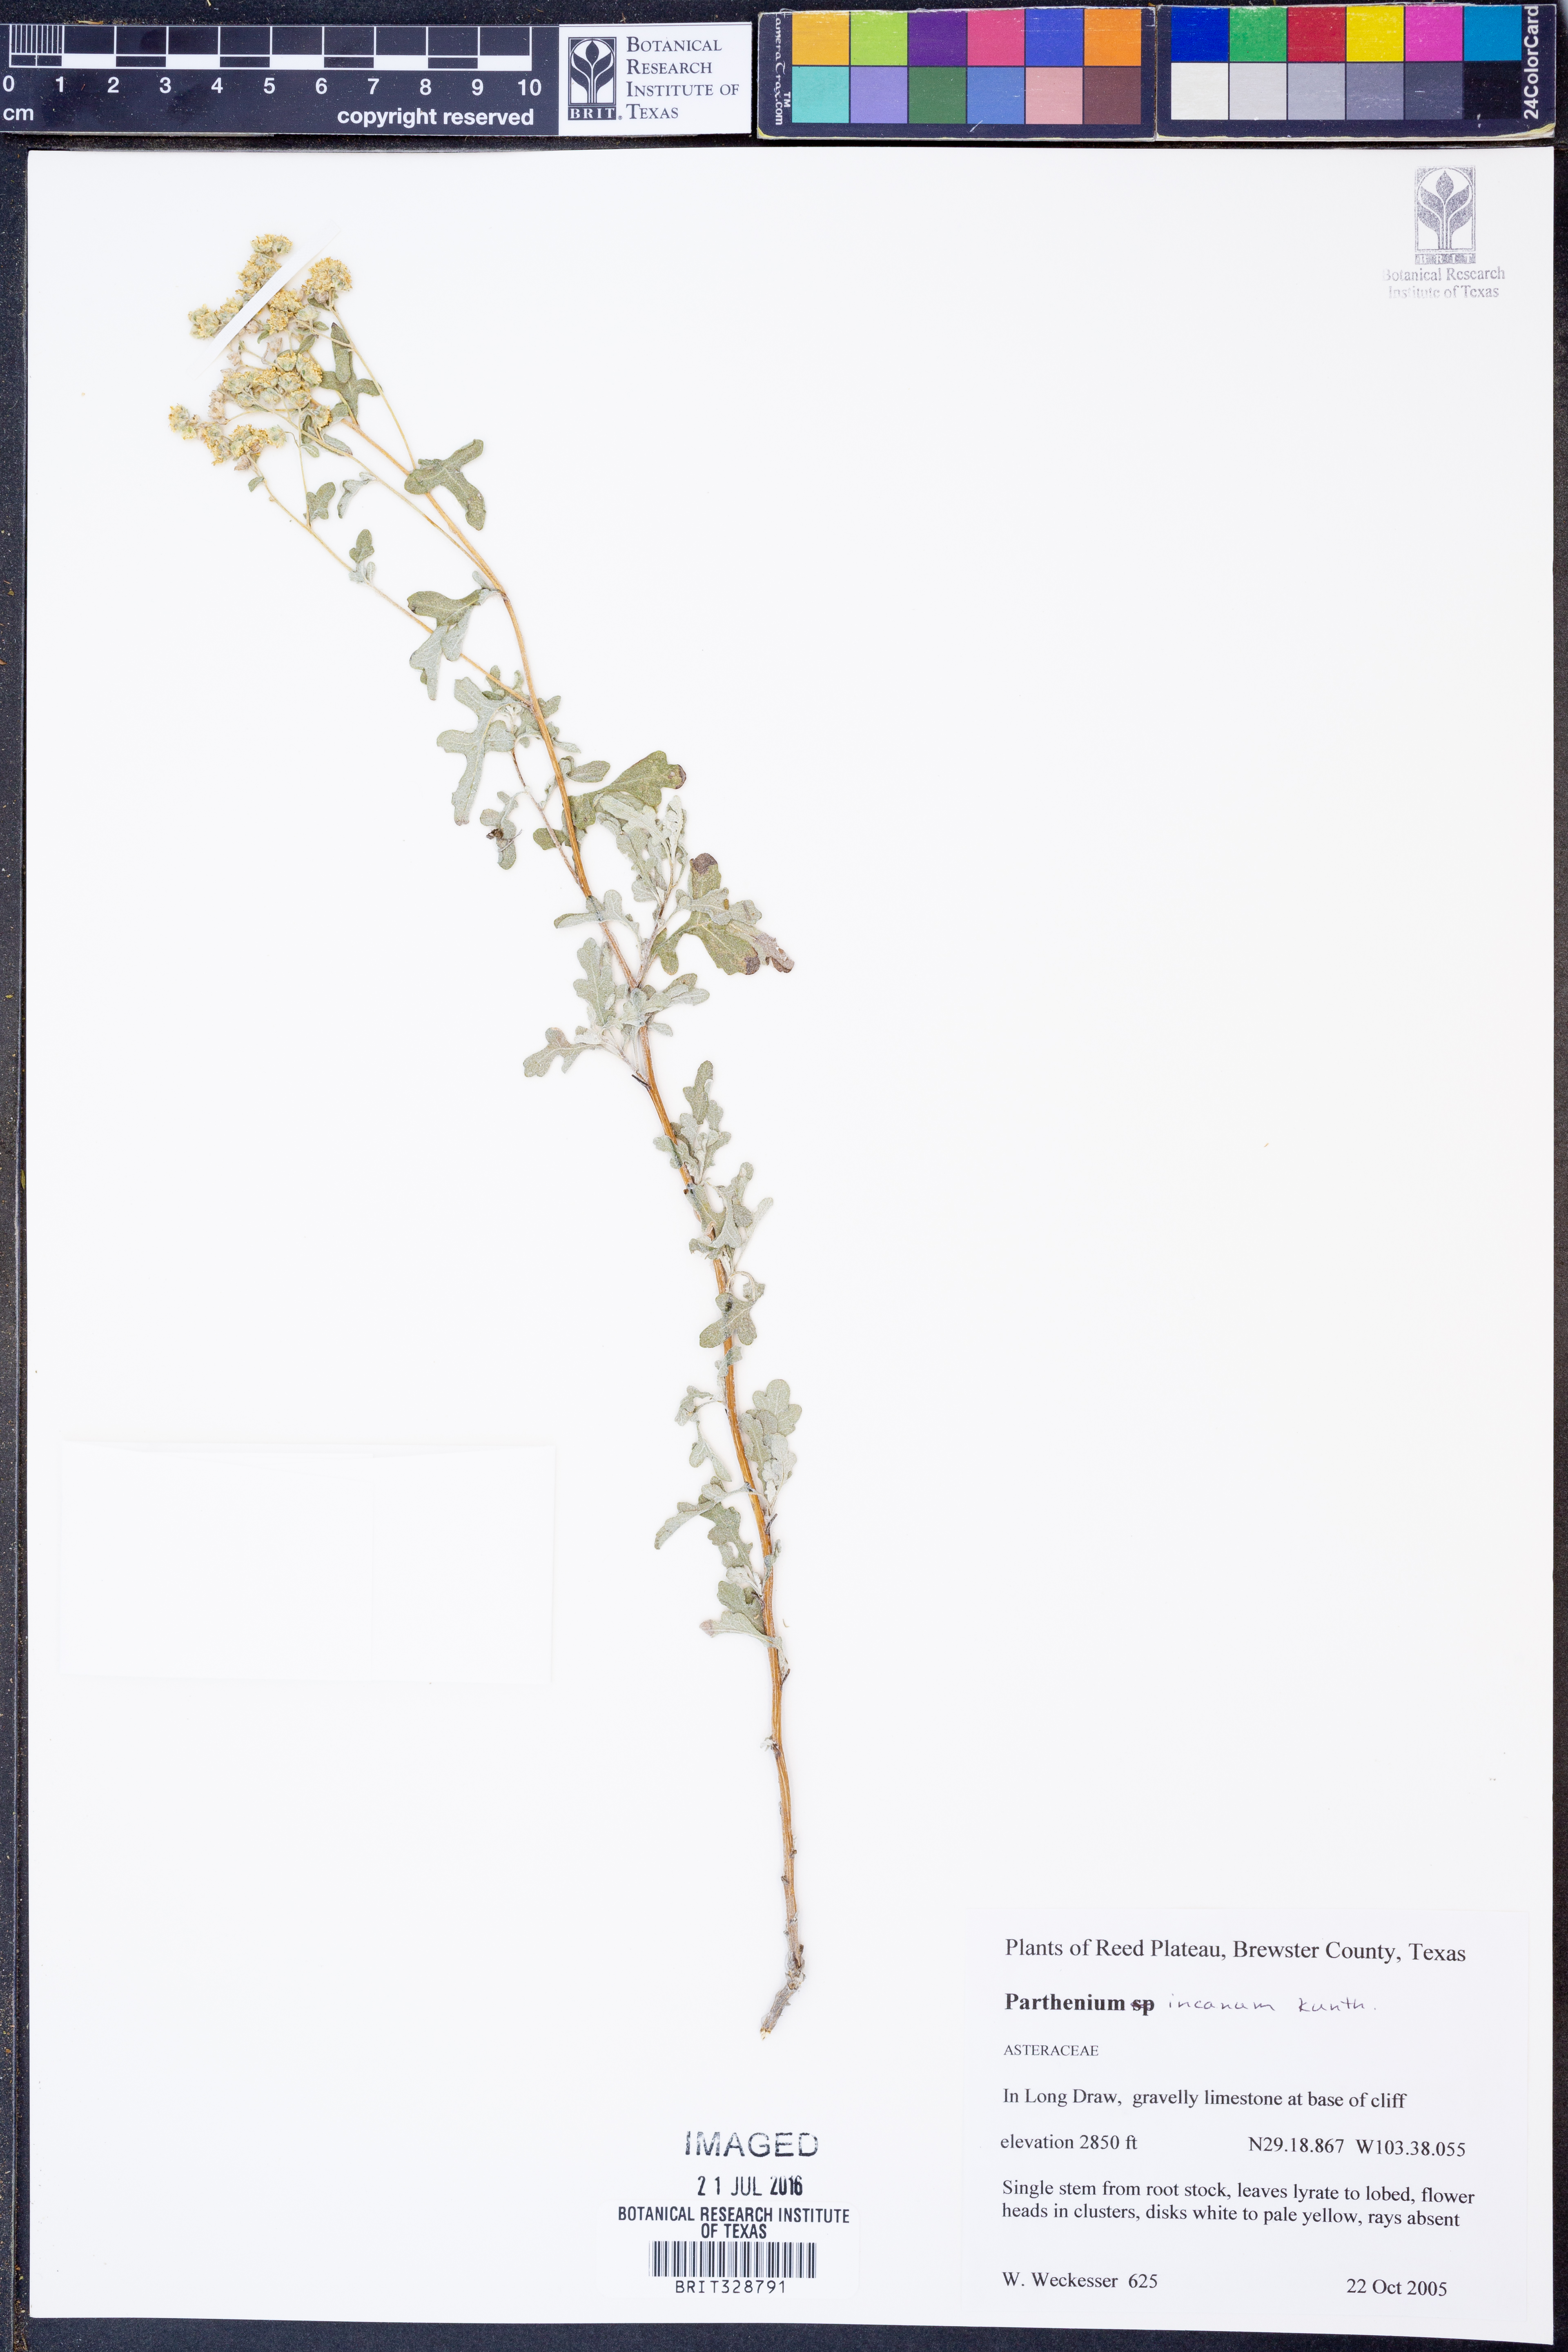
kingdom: Plantae
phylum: Tracheophyta
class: Magnoliopsida
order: Asterales
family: Asteraceae
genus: Parthenium
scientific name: Parthenium incanum
